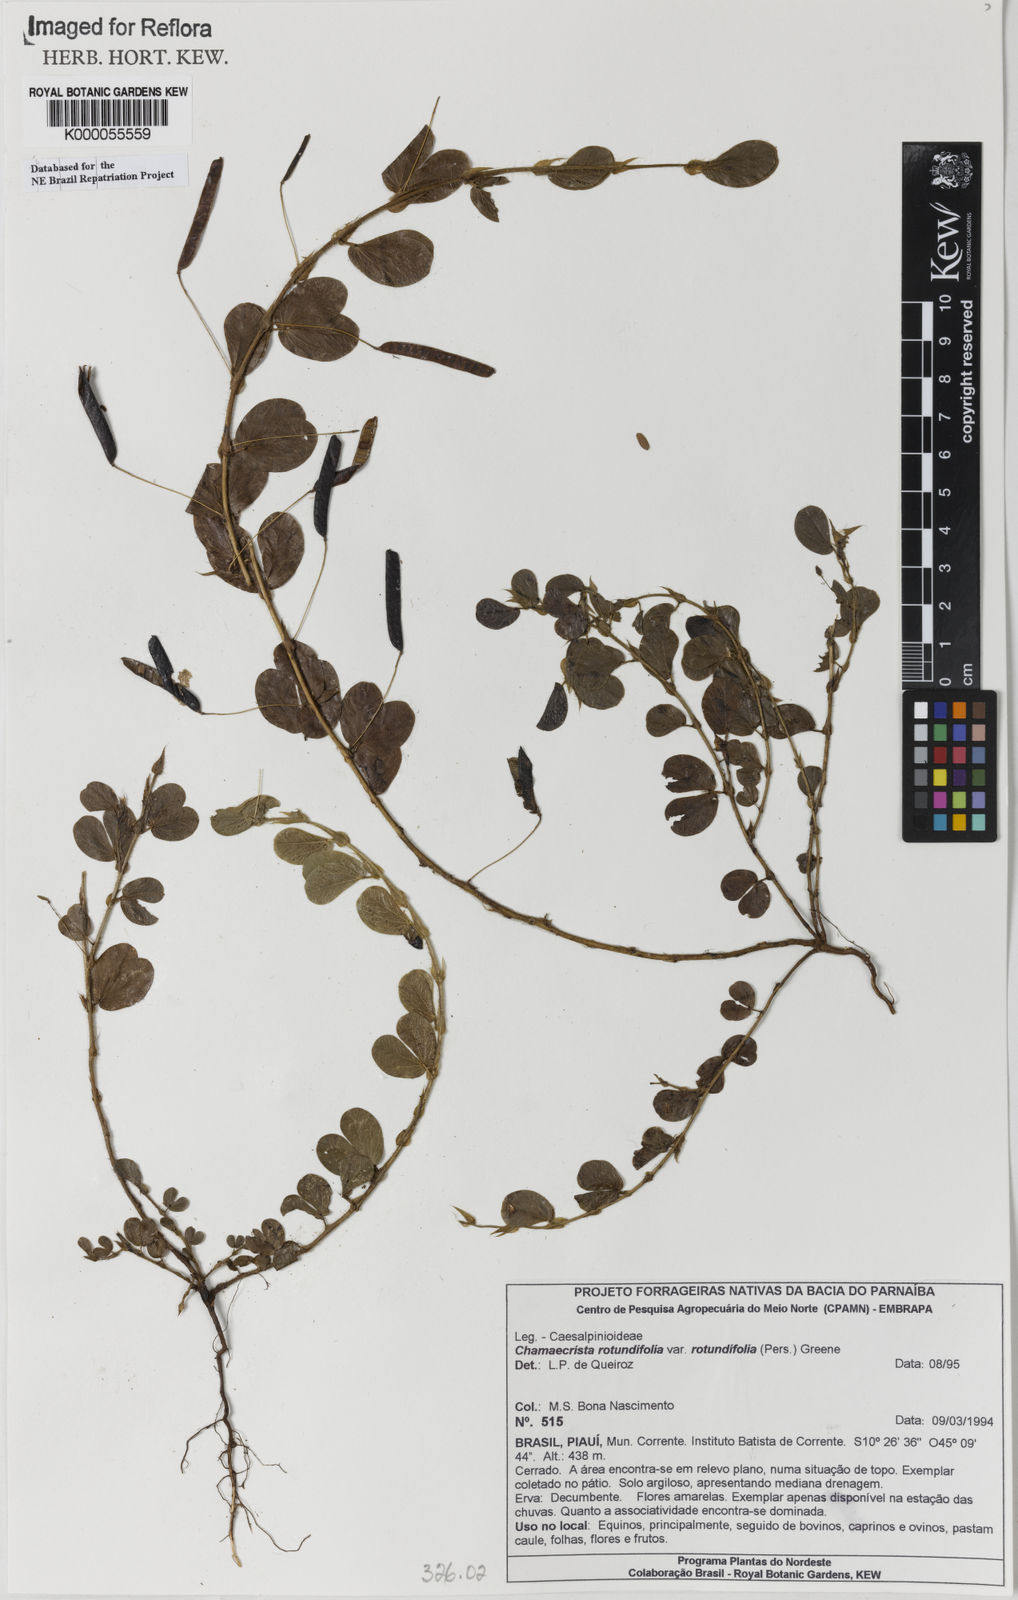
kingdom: Plantae
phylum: Tracheophyta
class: Magnoliopsida
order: Fabales
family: Fabaceae
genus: Chamaecrista
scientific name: Chamaecrista rotundifolia
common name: Round-leaf cassia
